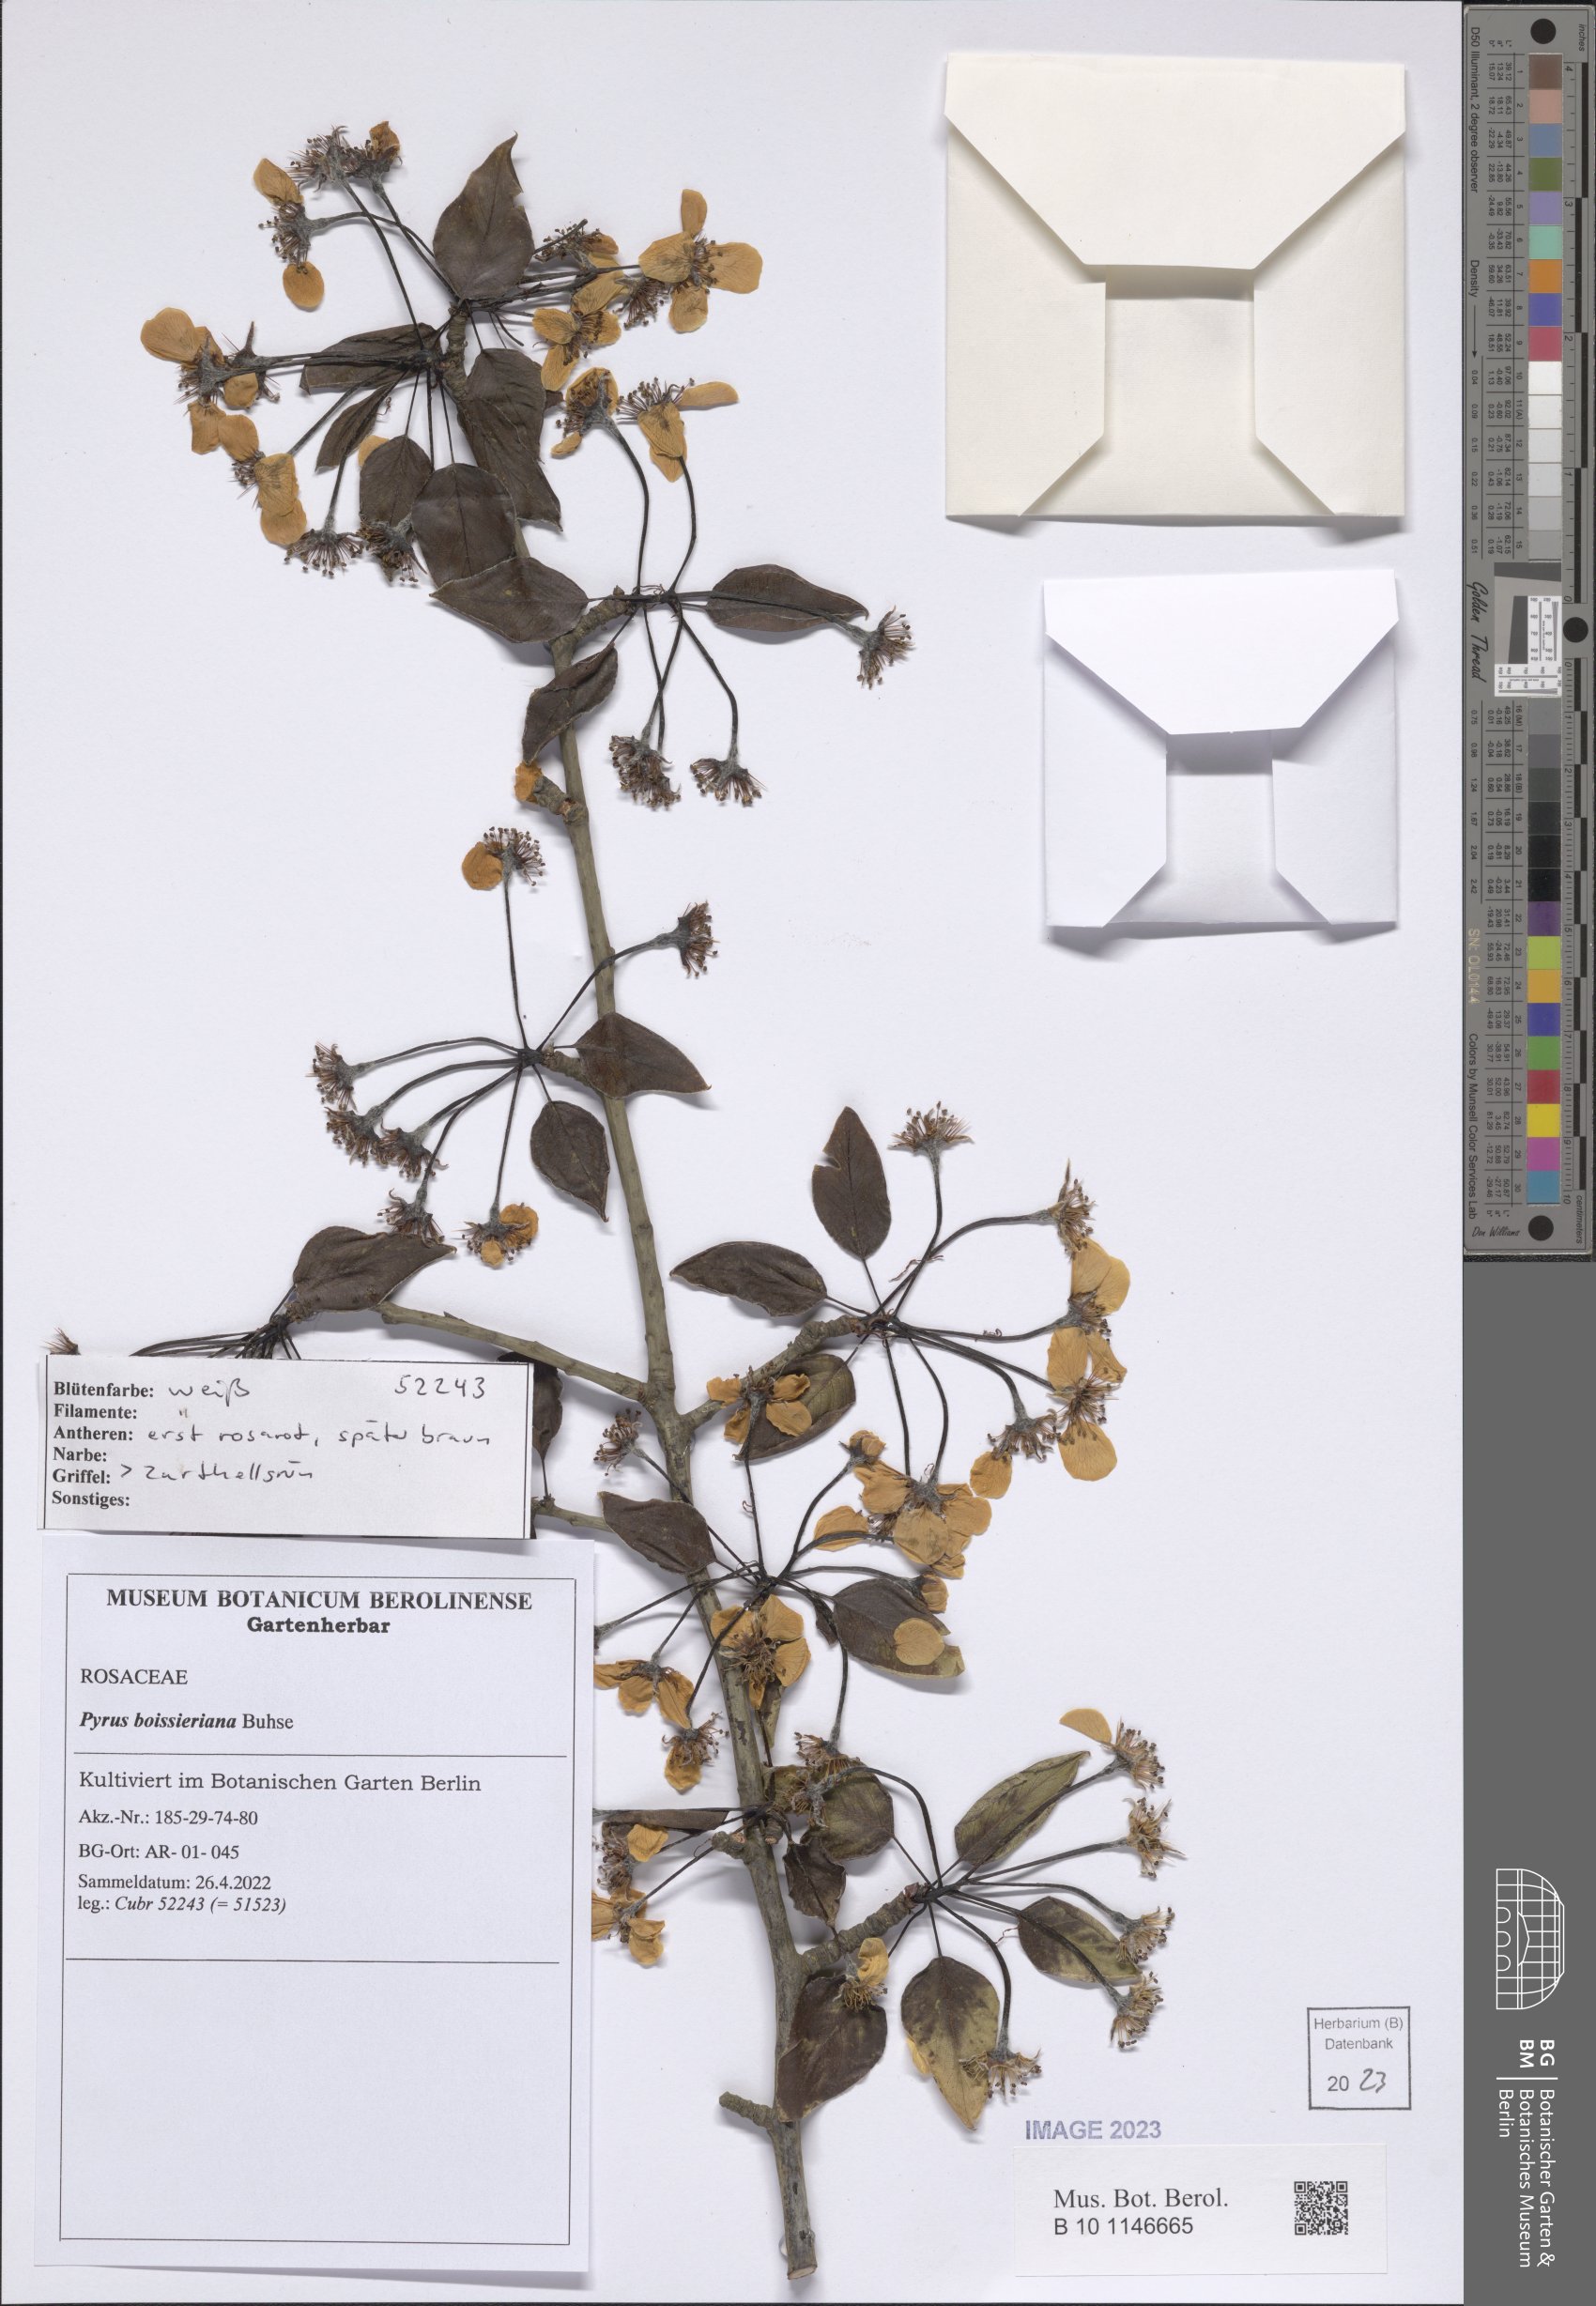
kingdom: Plantae
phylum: Tracheophyta
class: Magnoliopsida
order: Rosales
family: Rosaceae
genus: Pyrus
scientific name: Pyrus boissieriana
